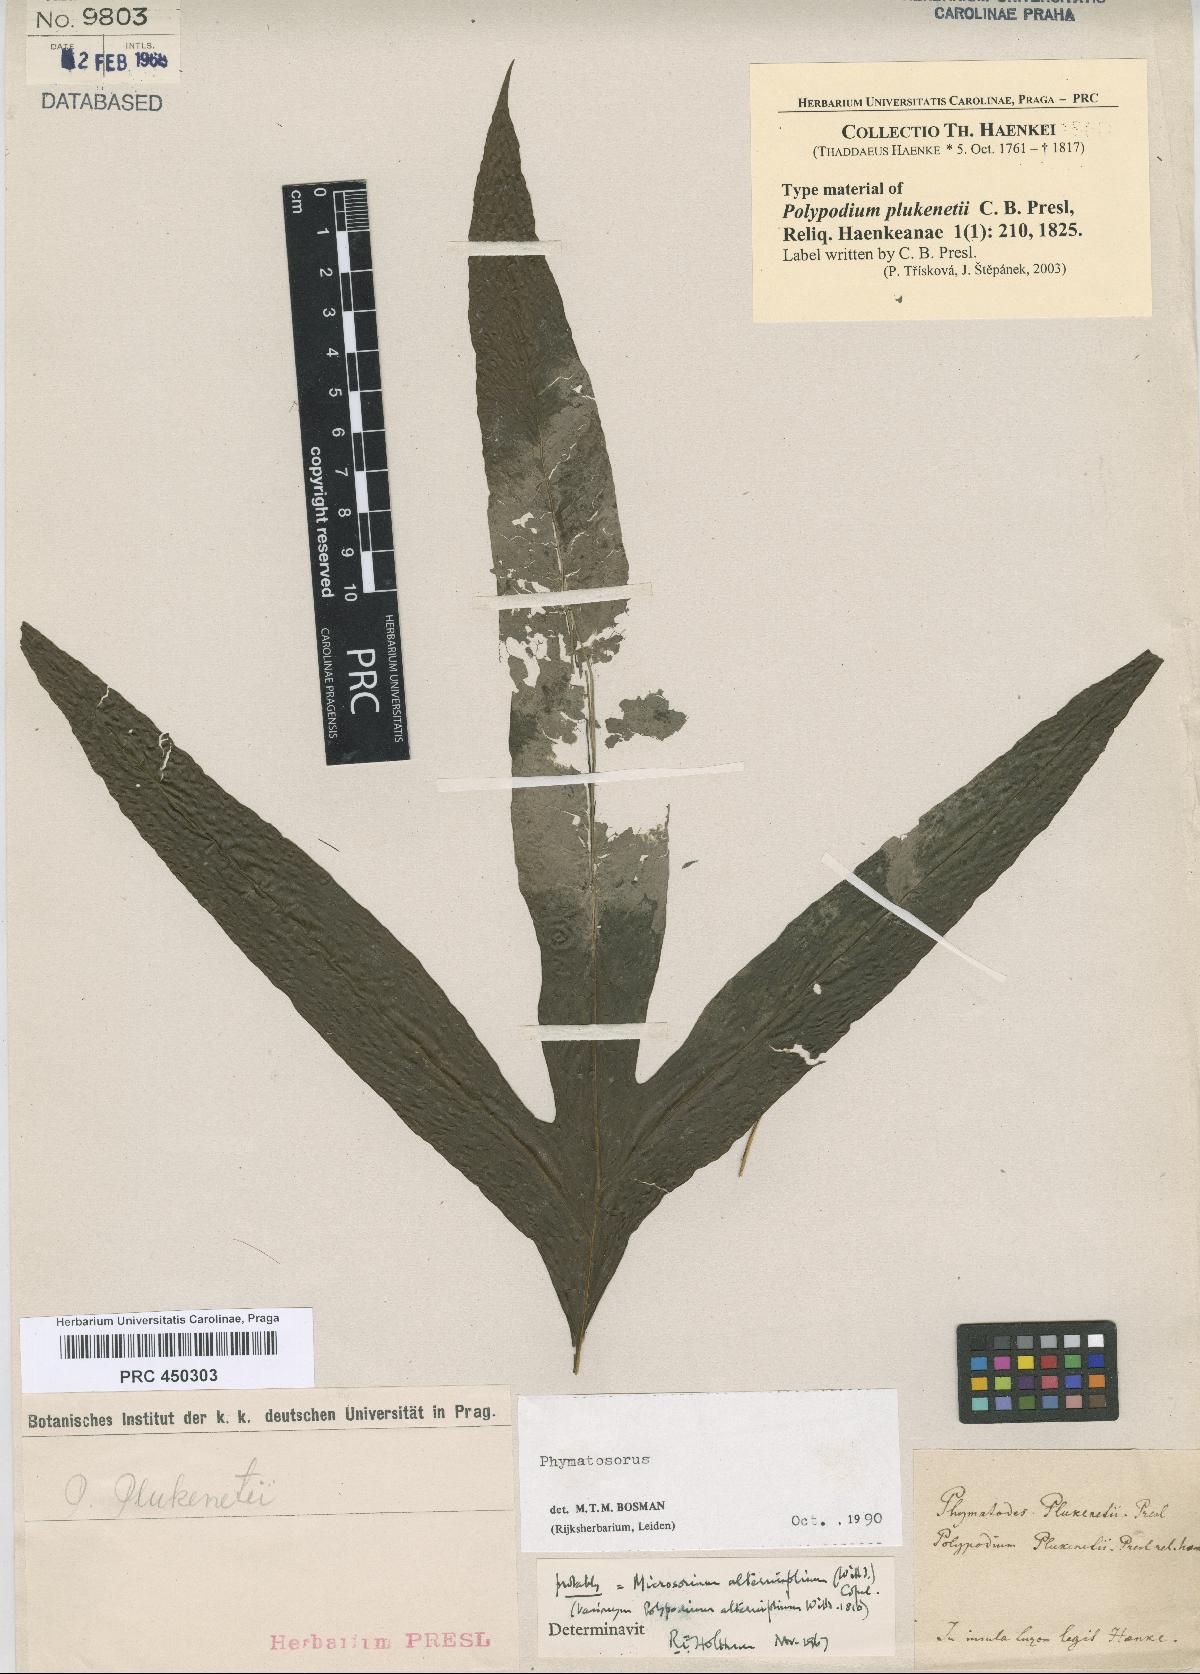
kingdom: Plantae
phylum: Tracheophyta
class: Polypodiopsida
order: Polypodiales
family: Polypodiaceae
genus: Microsorum
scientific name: Microsorum membranifolium
